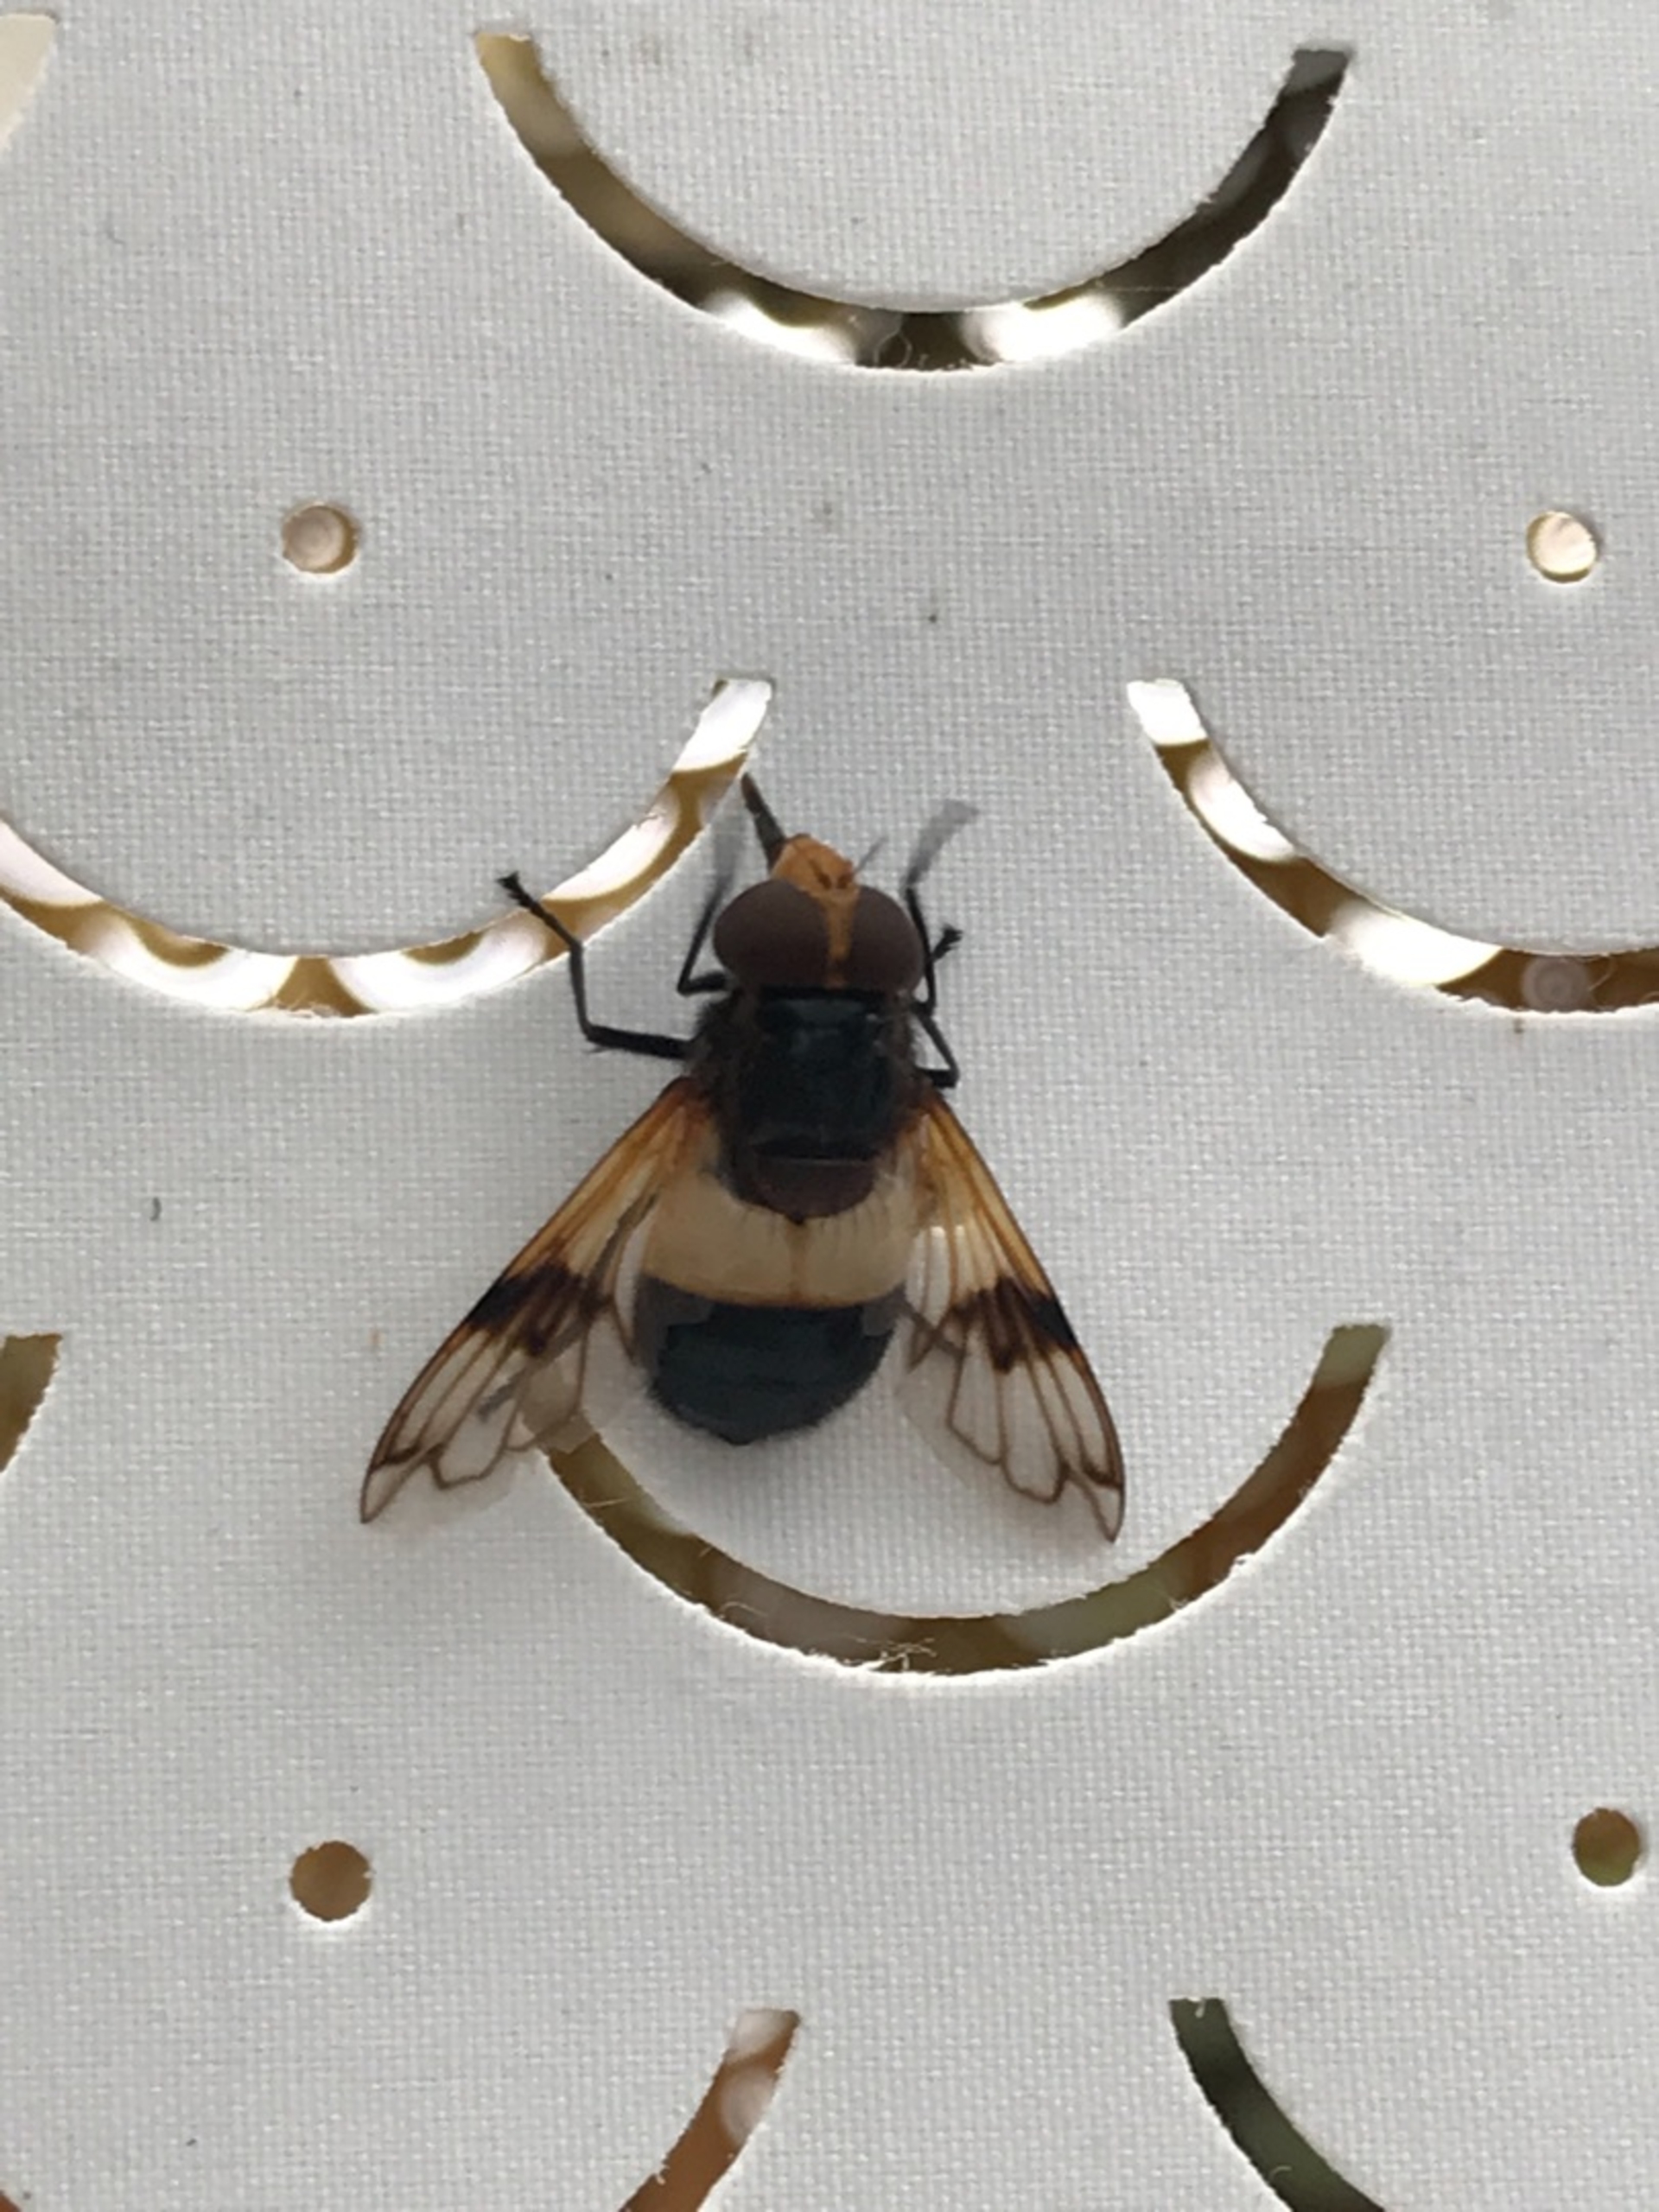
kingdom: Animalia
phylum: Arthropoda
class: Insecta
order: Diptera
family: Syrphidae
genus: Volucella
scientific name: Volucella pellucens
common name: Hvidbåndet humlesvirreflue
